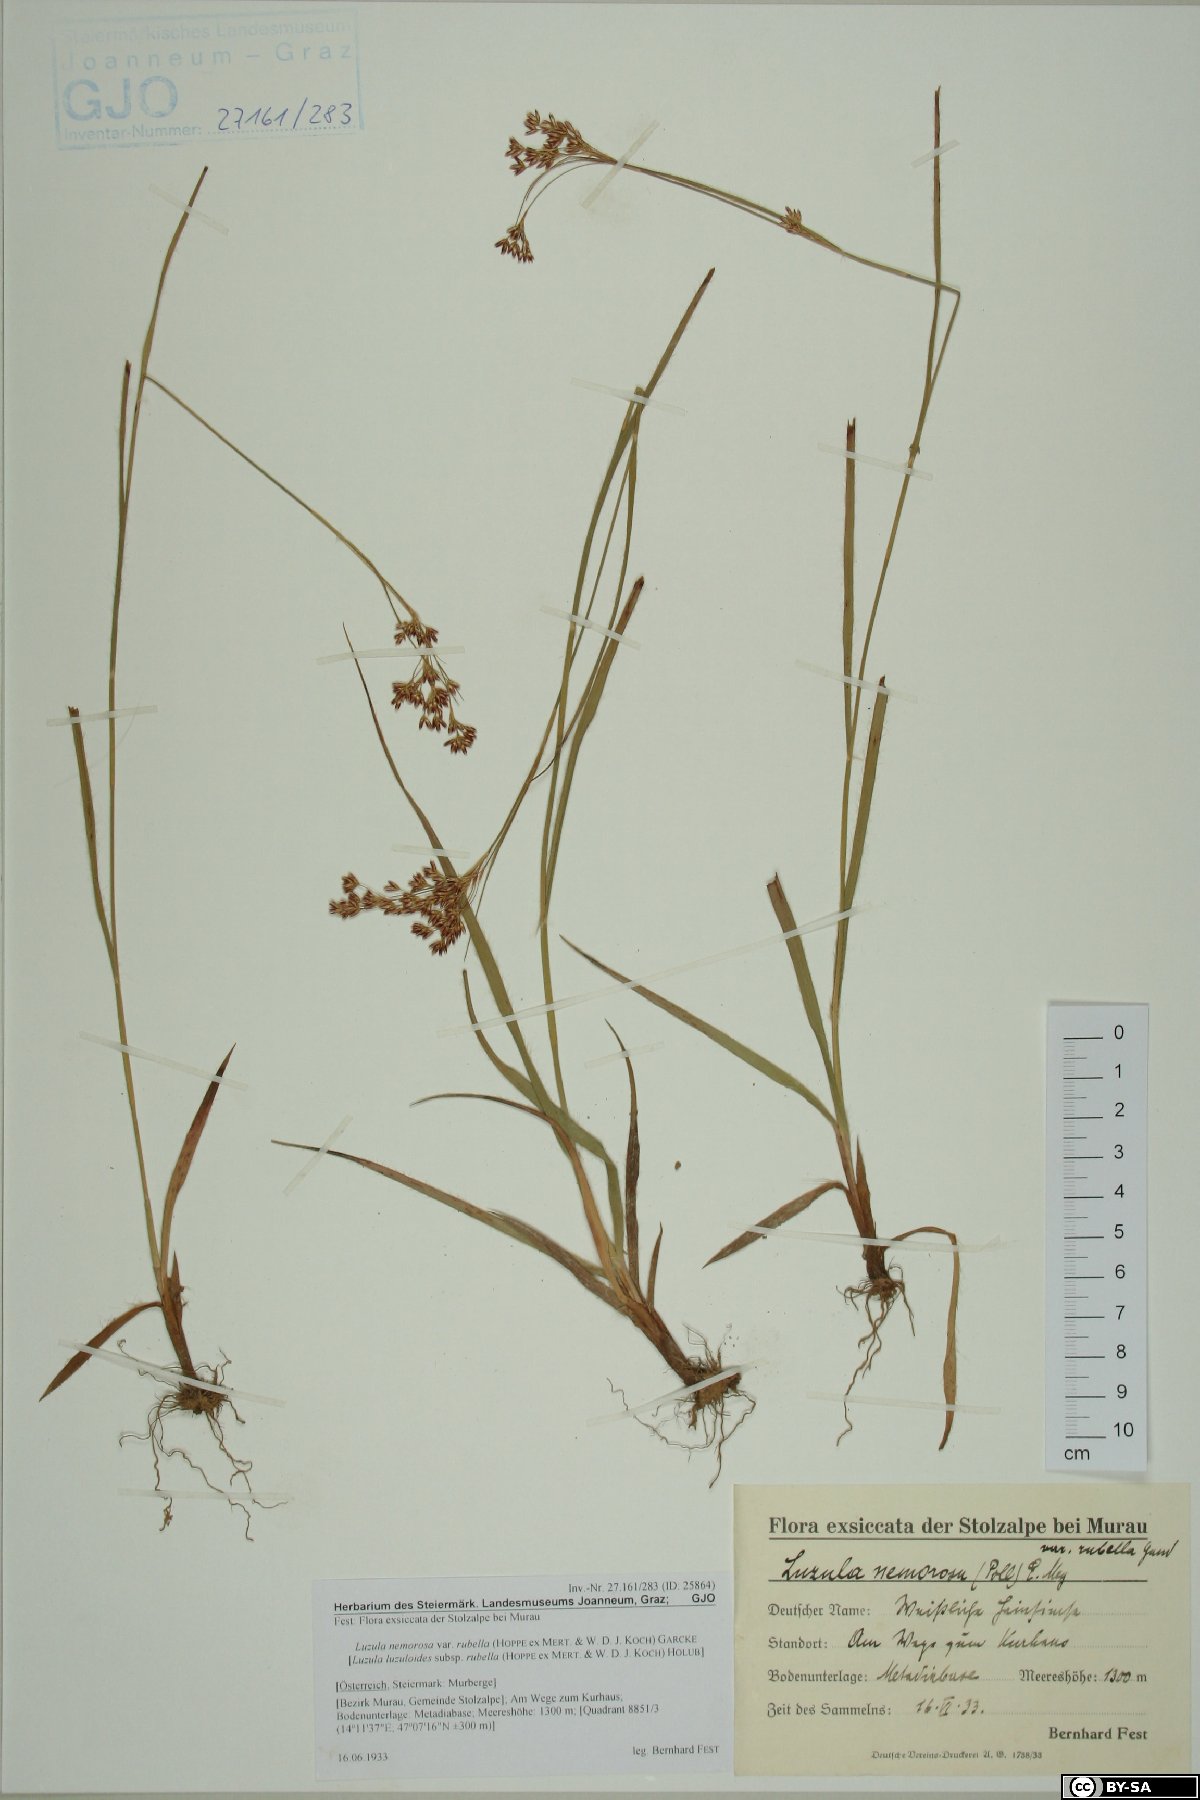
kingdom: Plantae
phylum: Tracheophyta
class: Liliopsida
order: Poales
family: Juncaceae
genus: Luzula
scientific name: Luzula luzuloides
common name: White wood-rush
